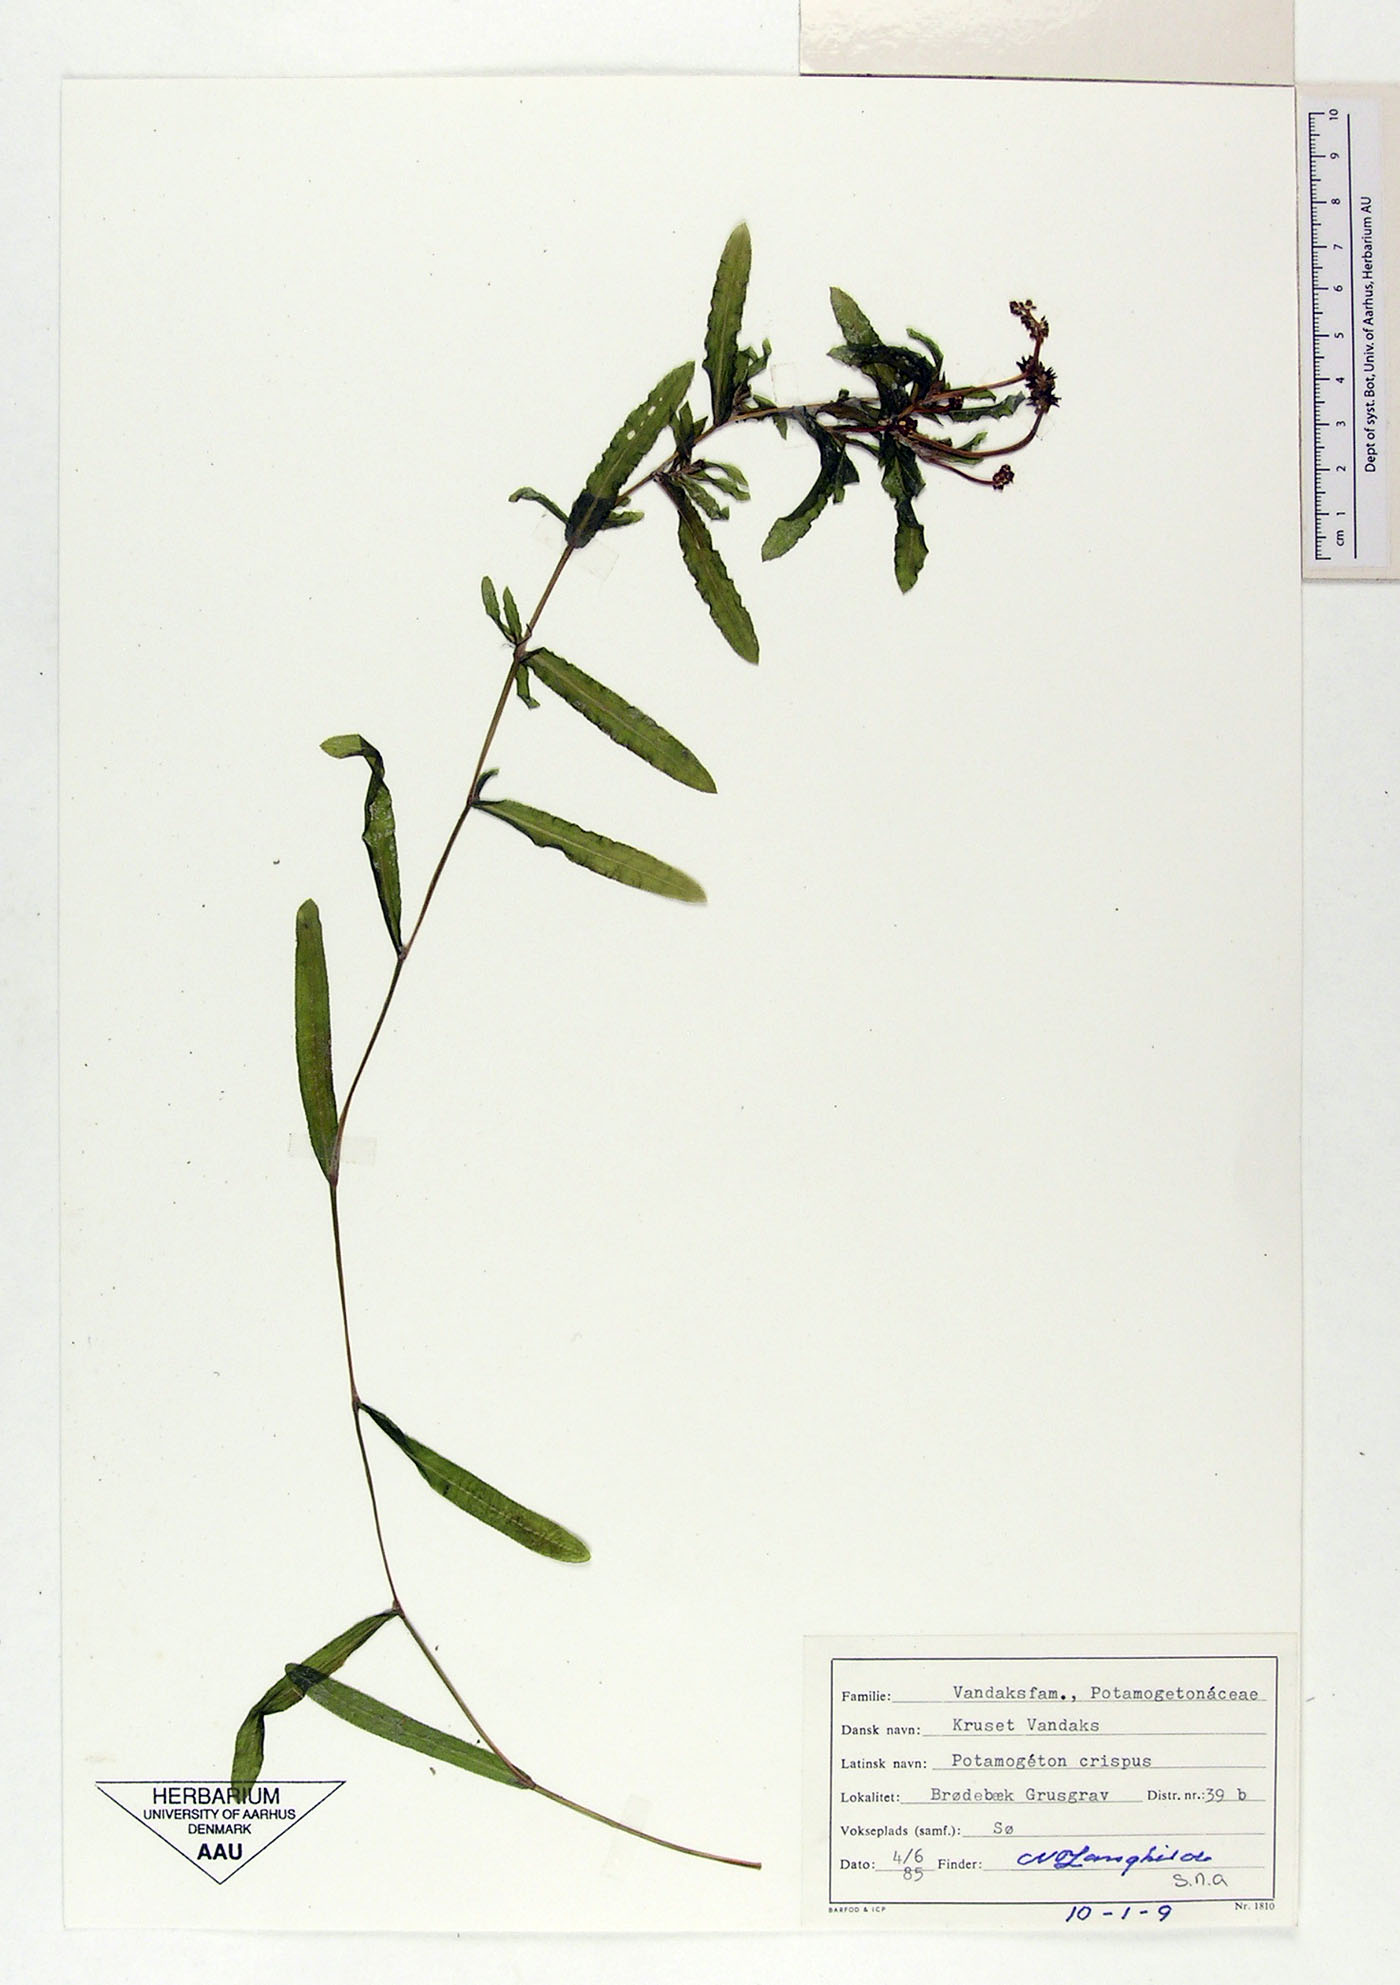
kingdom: Plantae
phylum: Tracheophyta
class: Liliopsida
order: Alismatales
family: Potamogetonaceae
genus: Potamogeton
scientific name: Potamogeton crispus
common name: Curled pondweed
